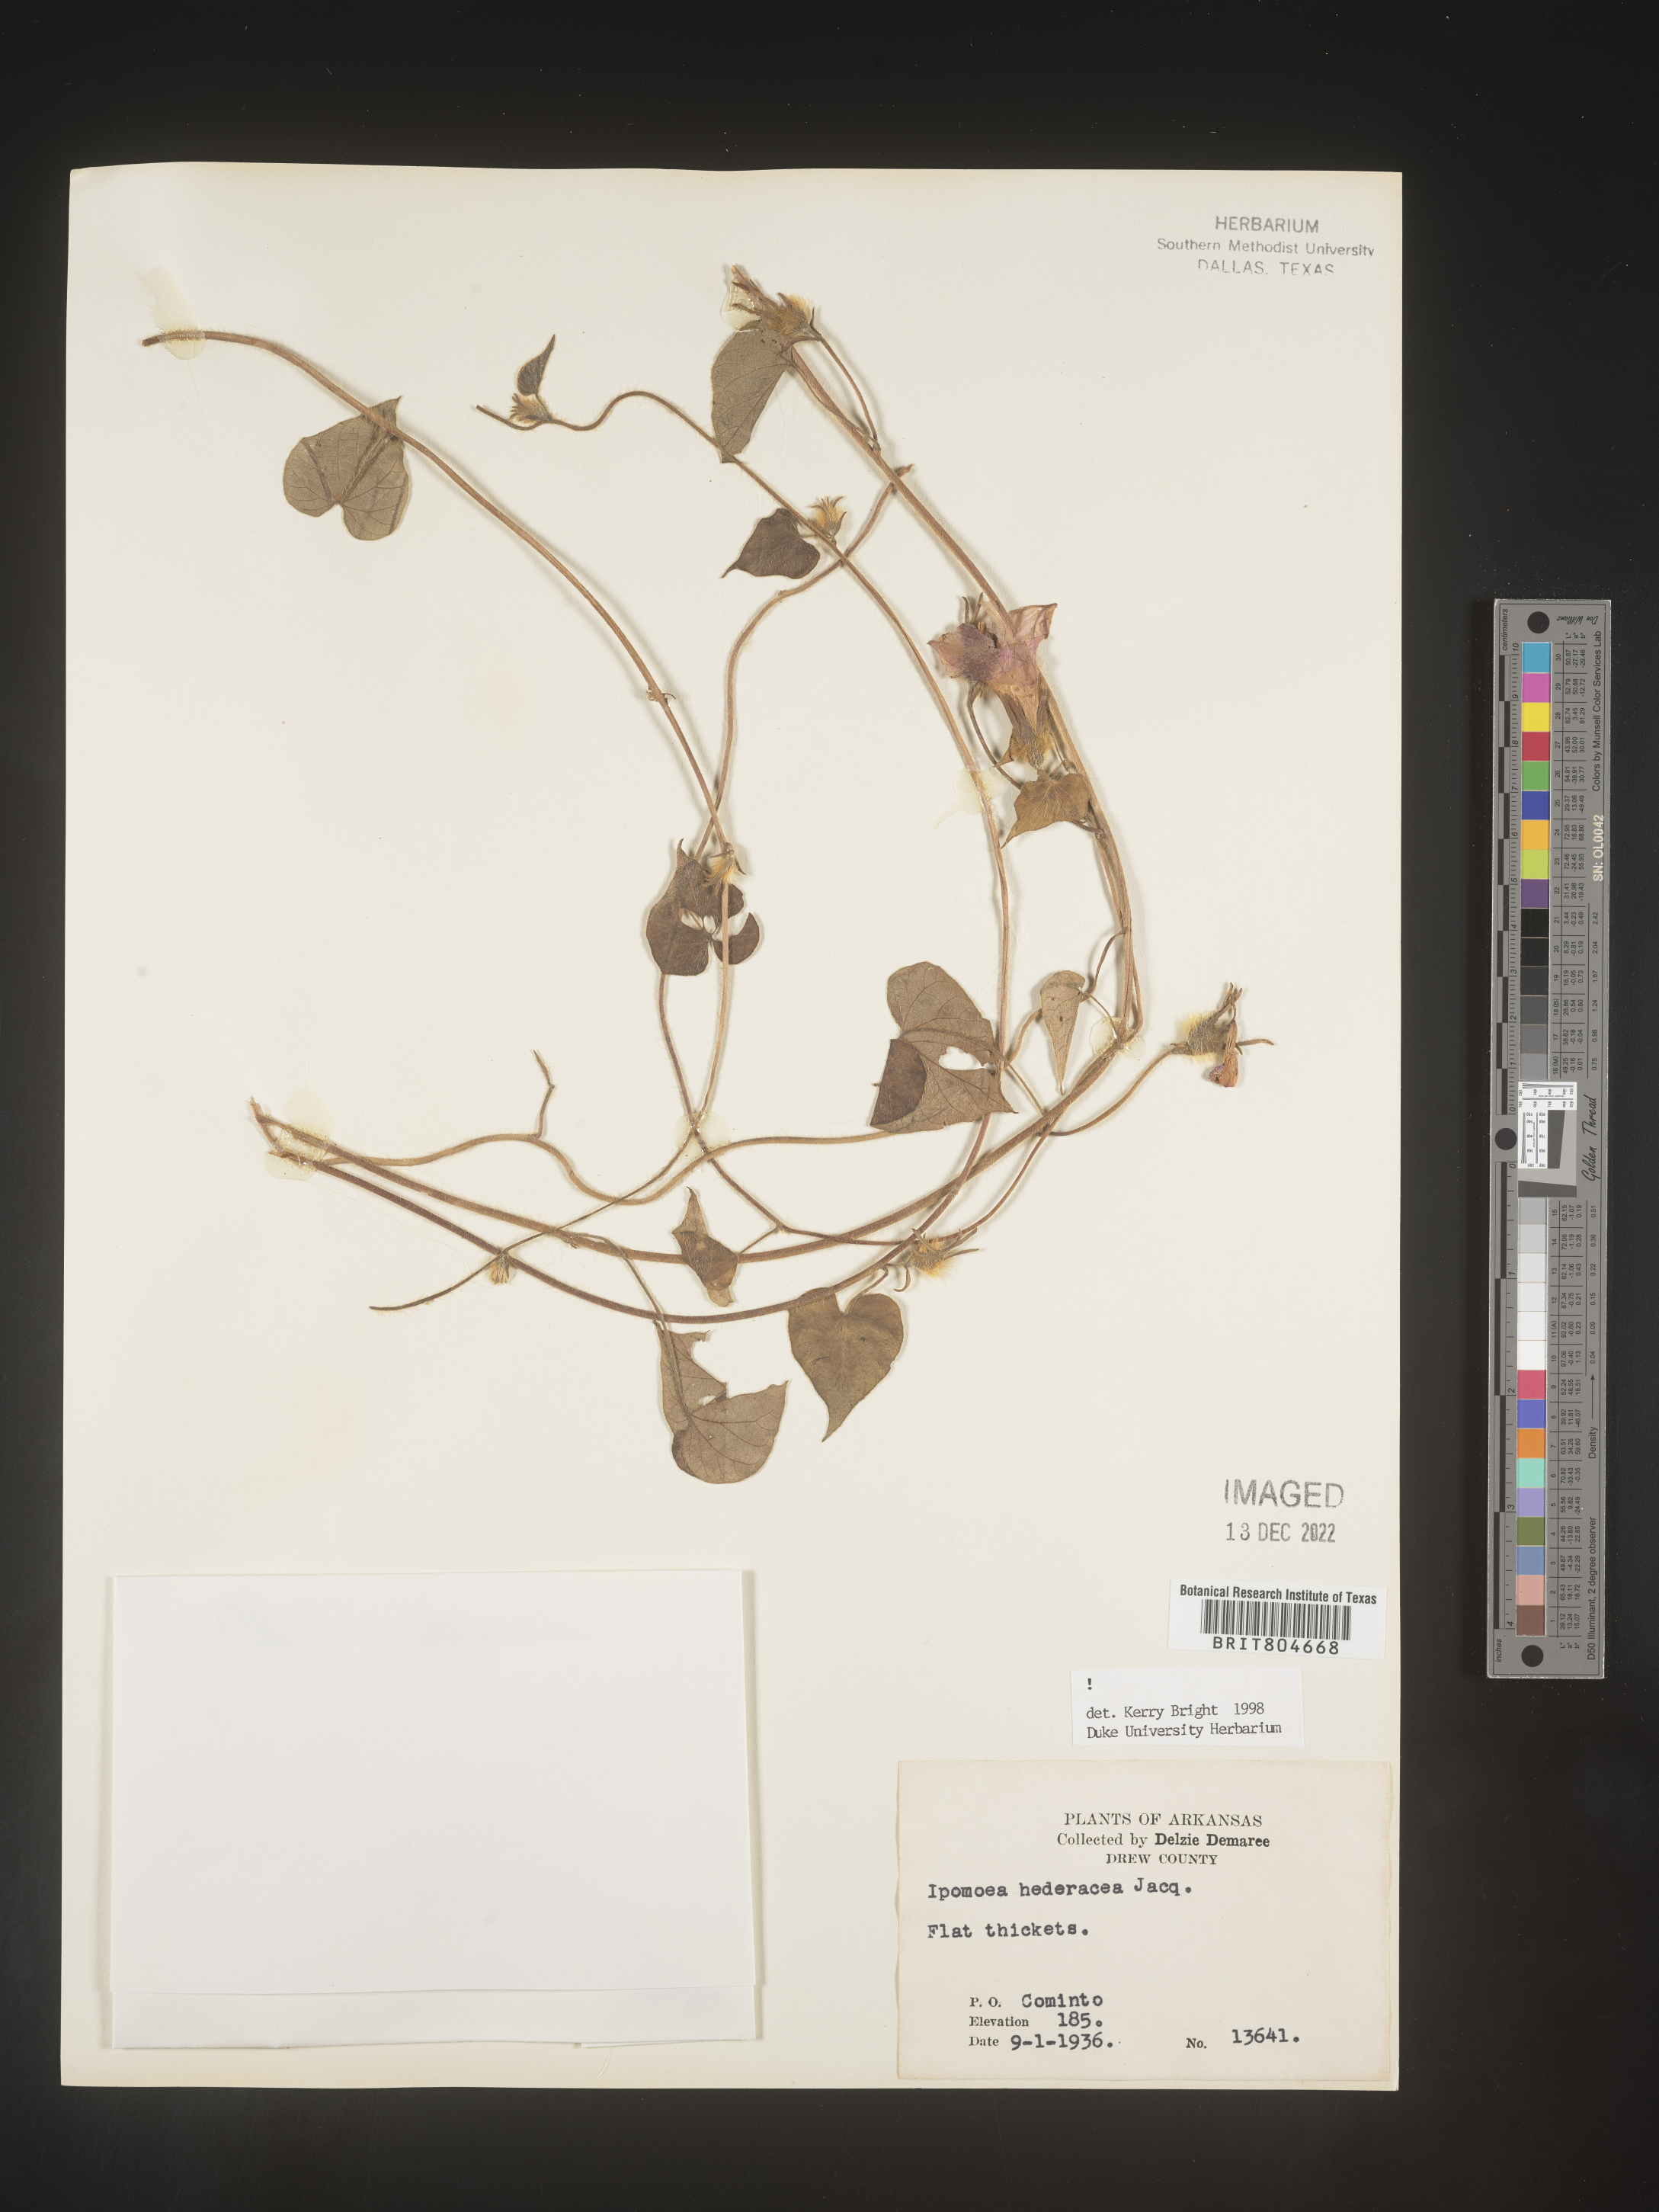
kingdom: Plantae
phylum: Tracheophyta
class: Magnoliopsida
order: Solanales
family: Convolvulaceae
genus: Ipomoea
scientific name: Ipomoea hederacea
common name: Ivy-leaved morning-glory
